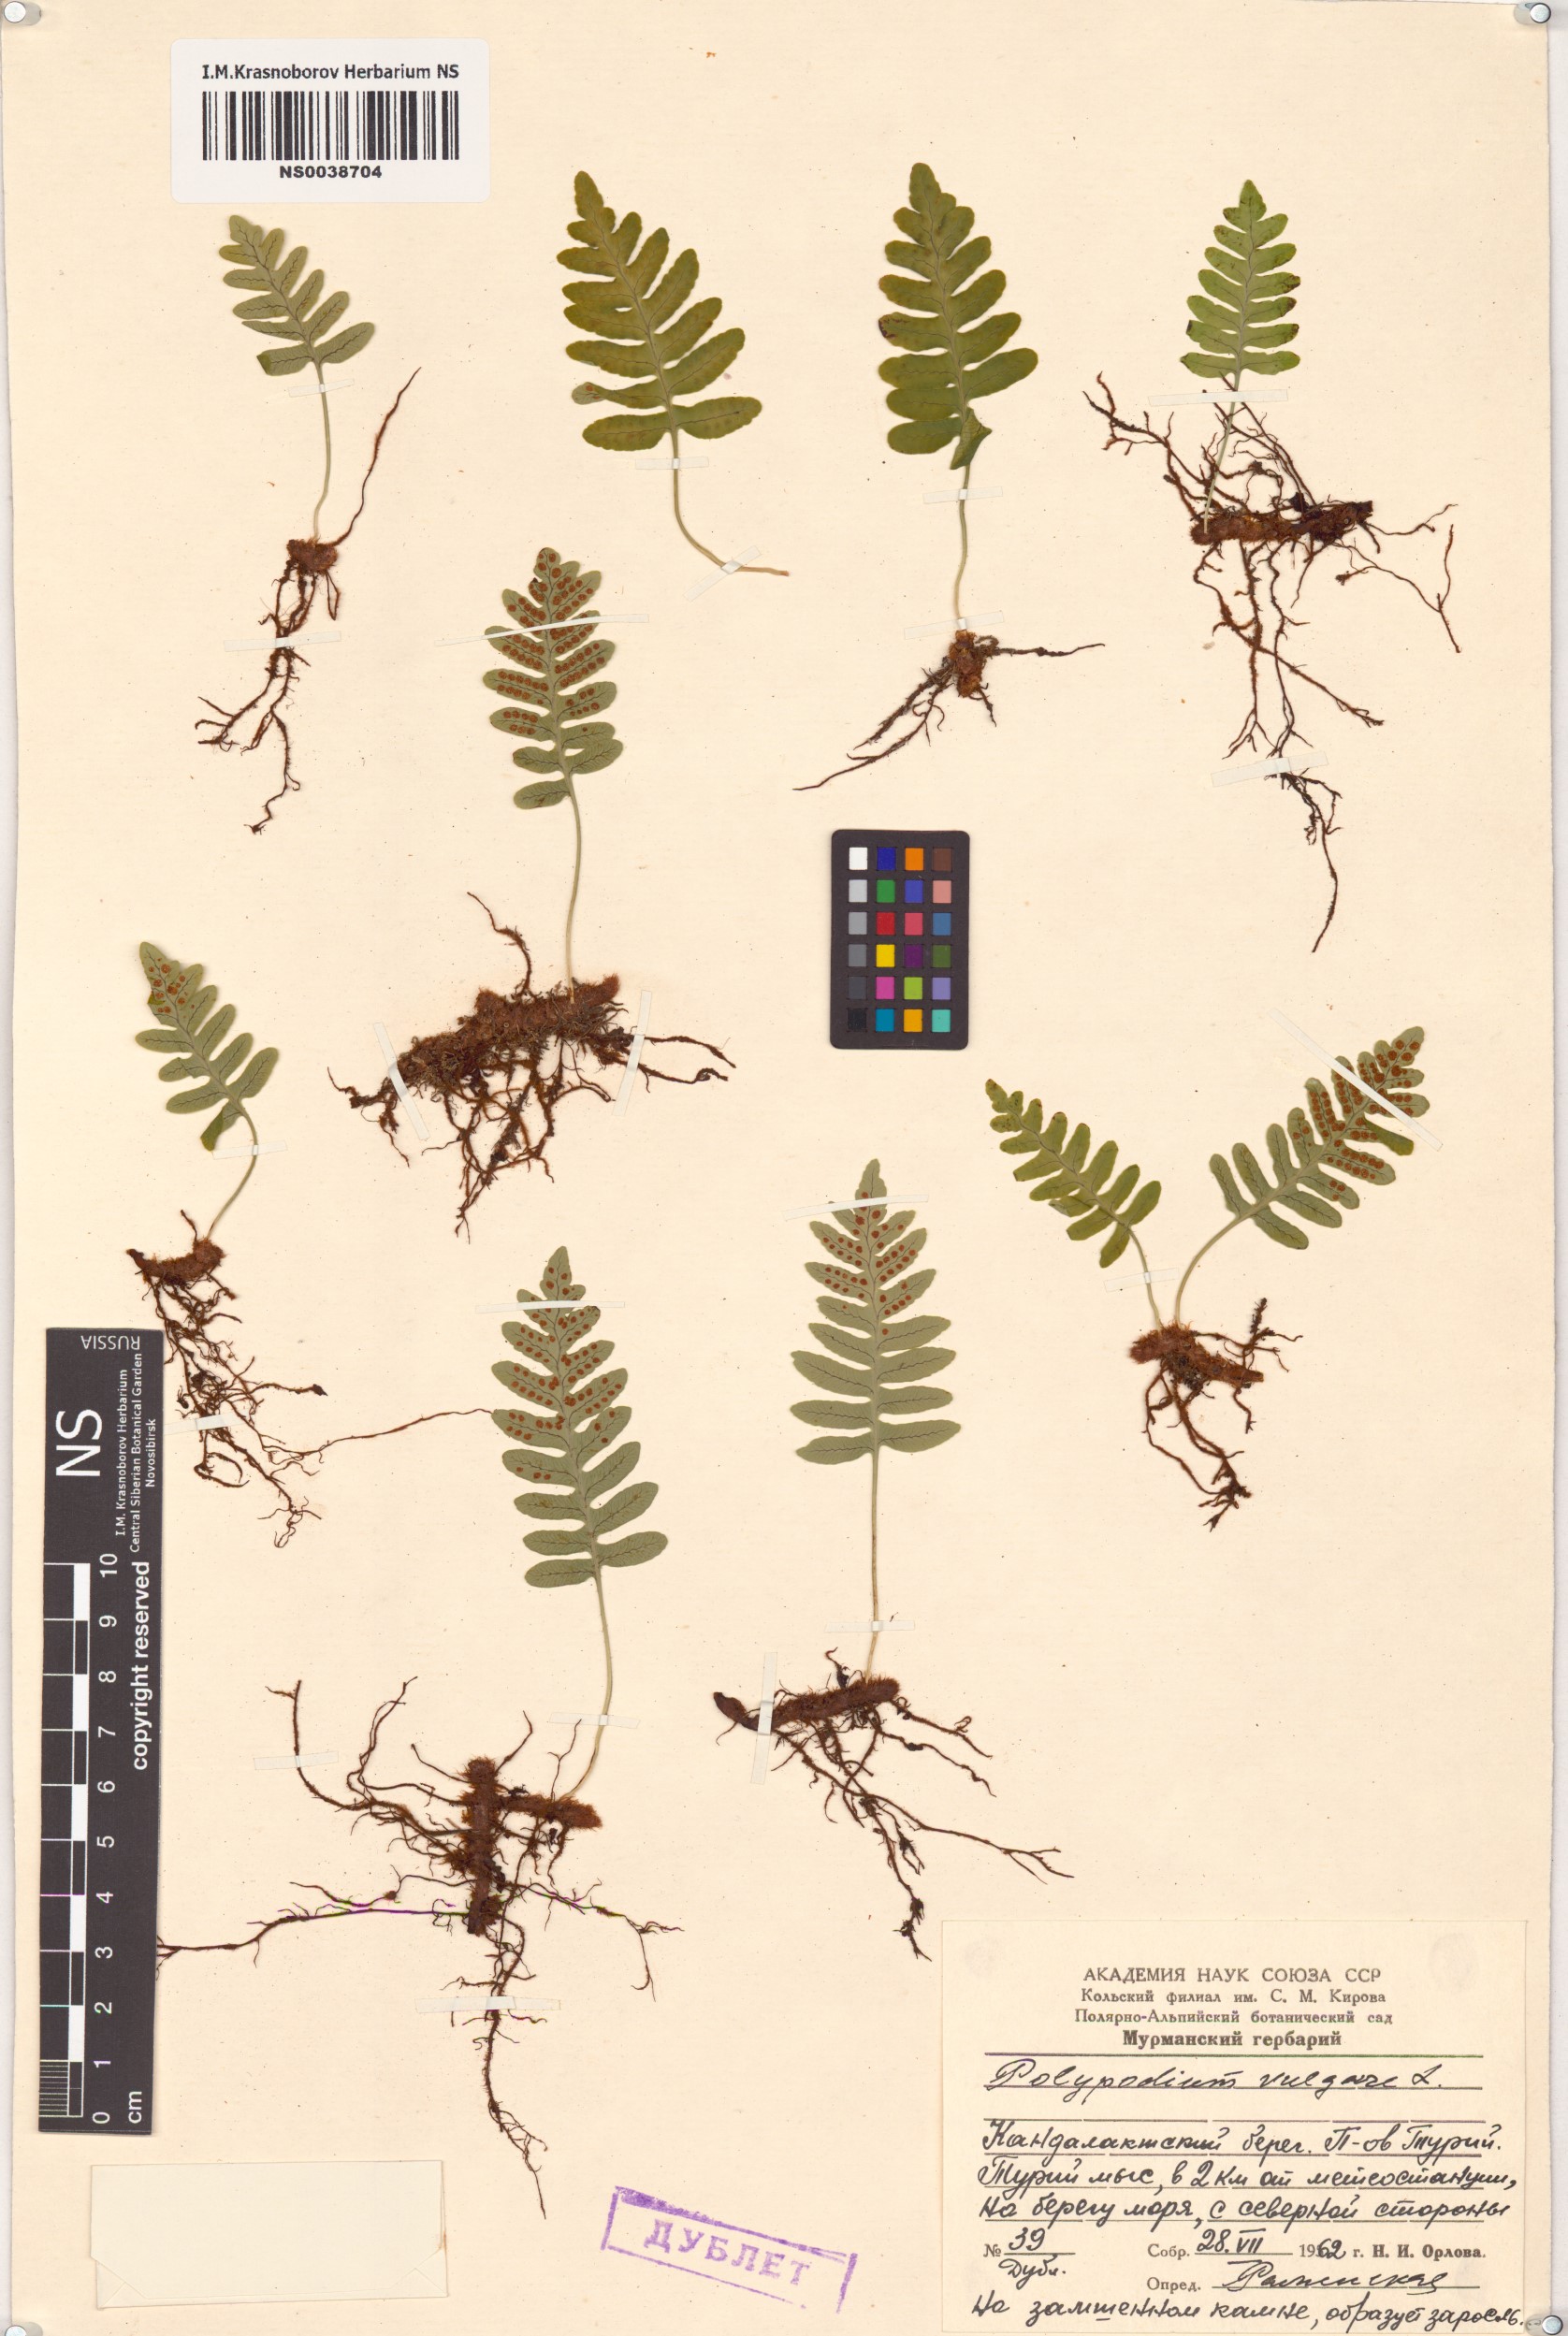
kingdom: Plantae
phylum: Tracheophyta
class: Polypodiopsida
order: Polypodiales
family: Polypodiaceae
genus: Polypodium
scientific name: Polypodium vulgare
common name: Common polypody
